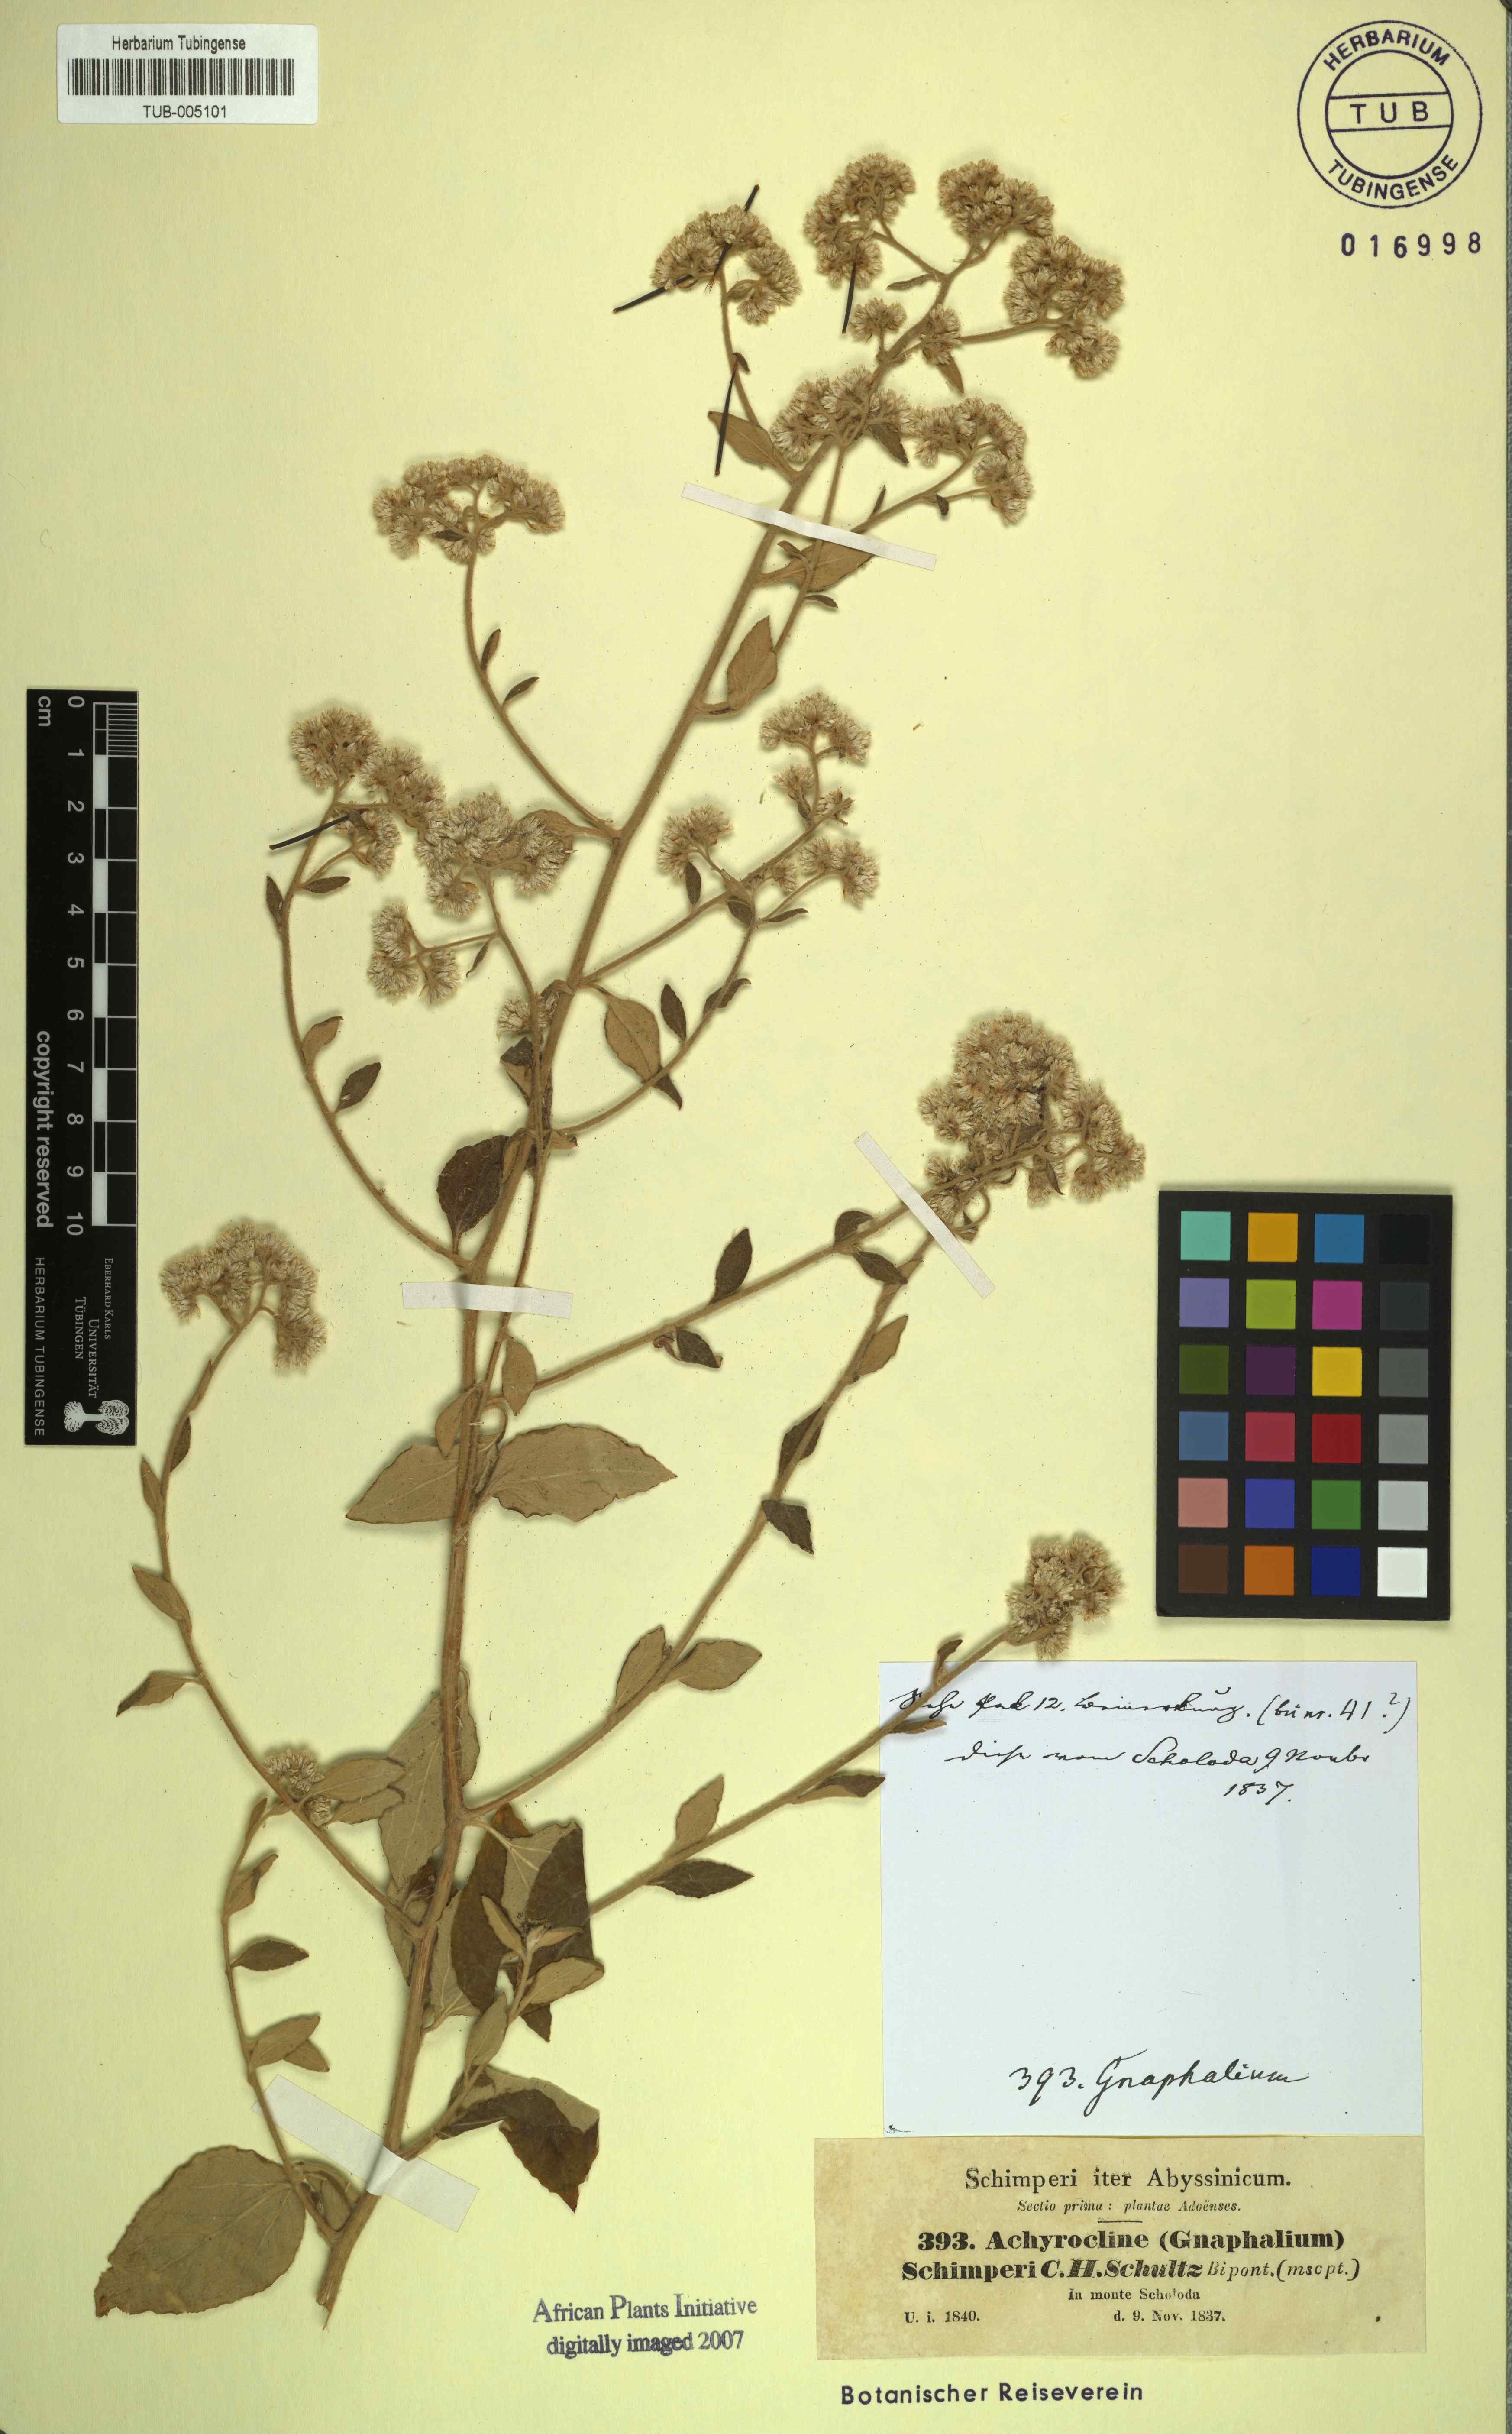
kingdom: Plantae
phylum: Tracheophyta
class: Magnoliopsida
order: Asterales
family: Asteraceae
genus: Helichrysum
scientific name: Helichrysum schimperi
